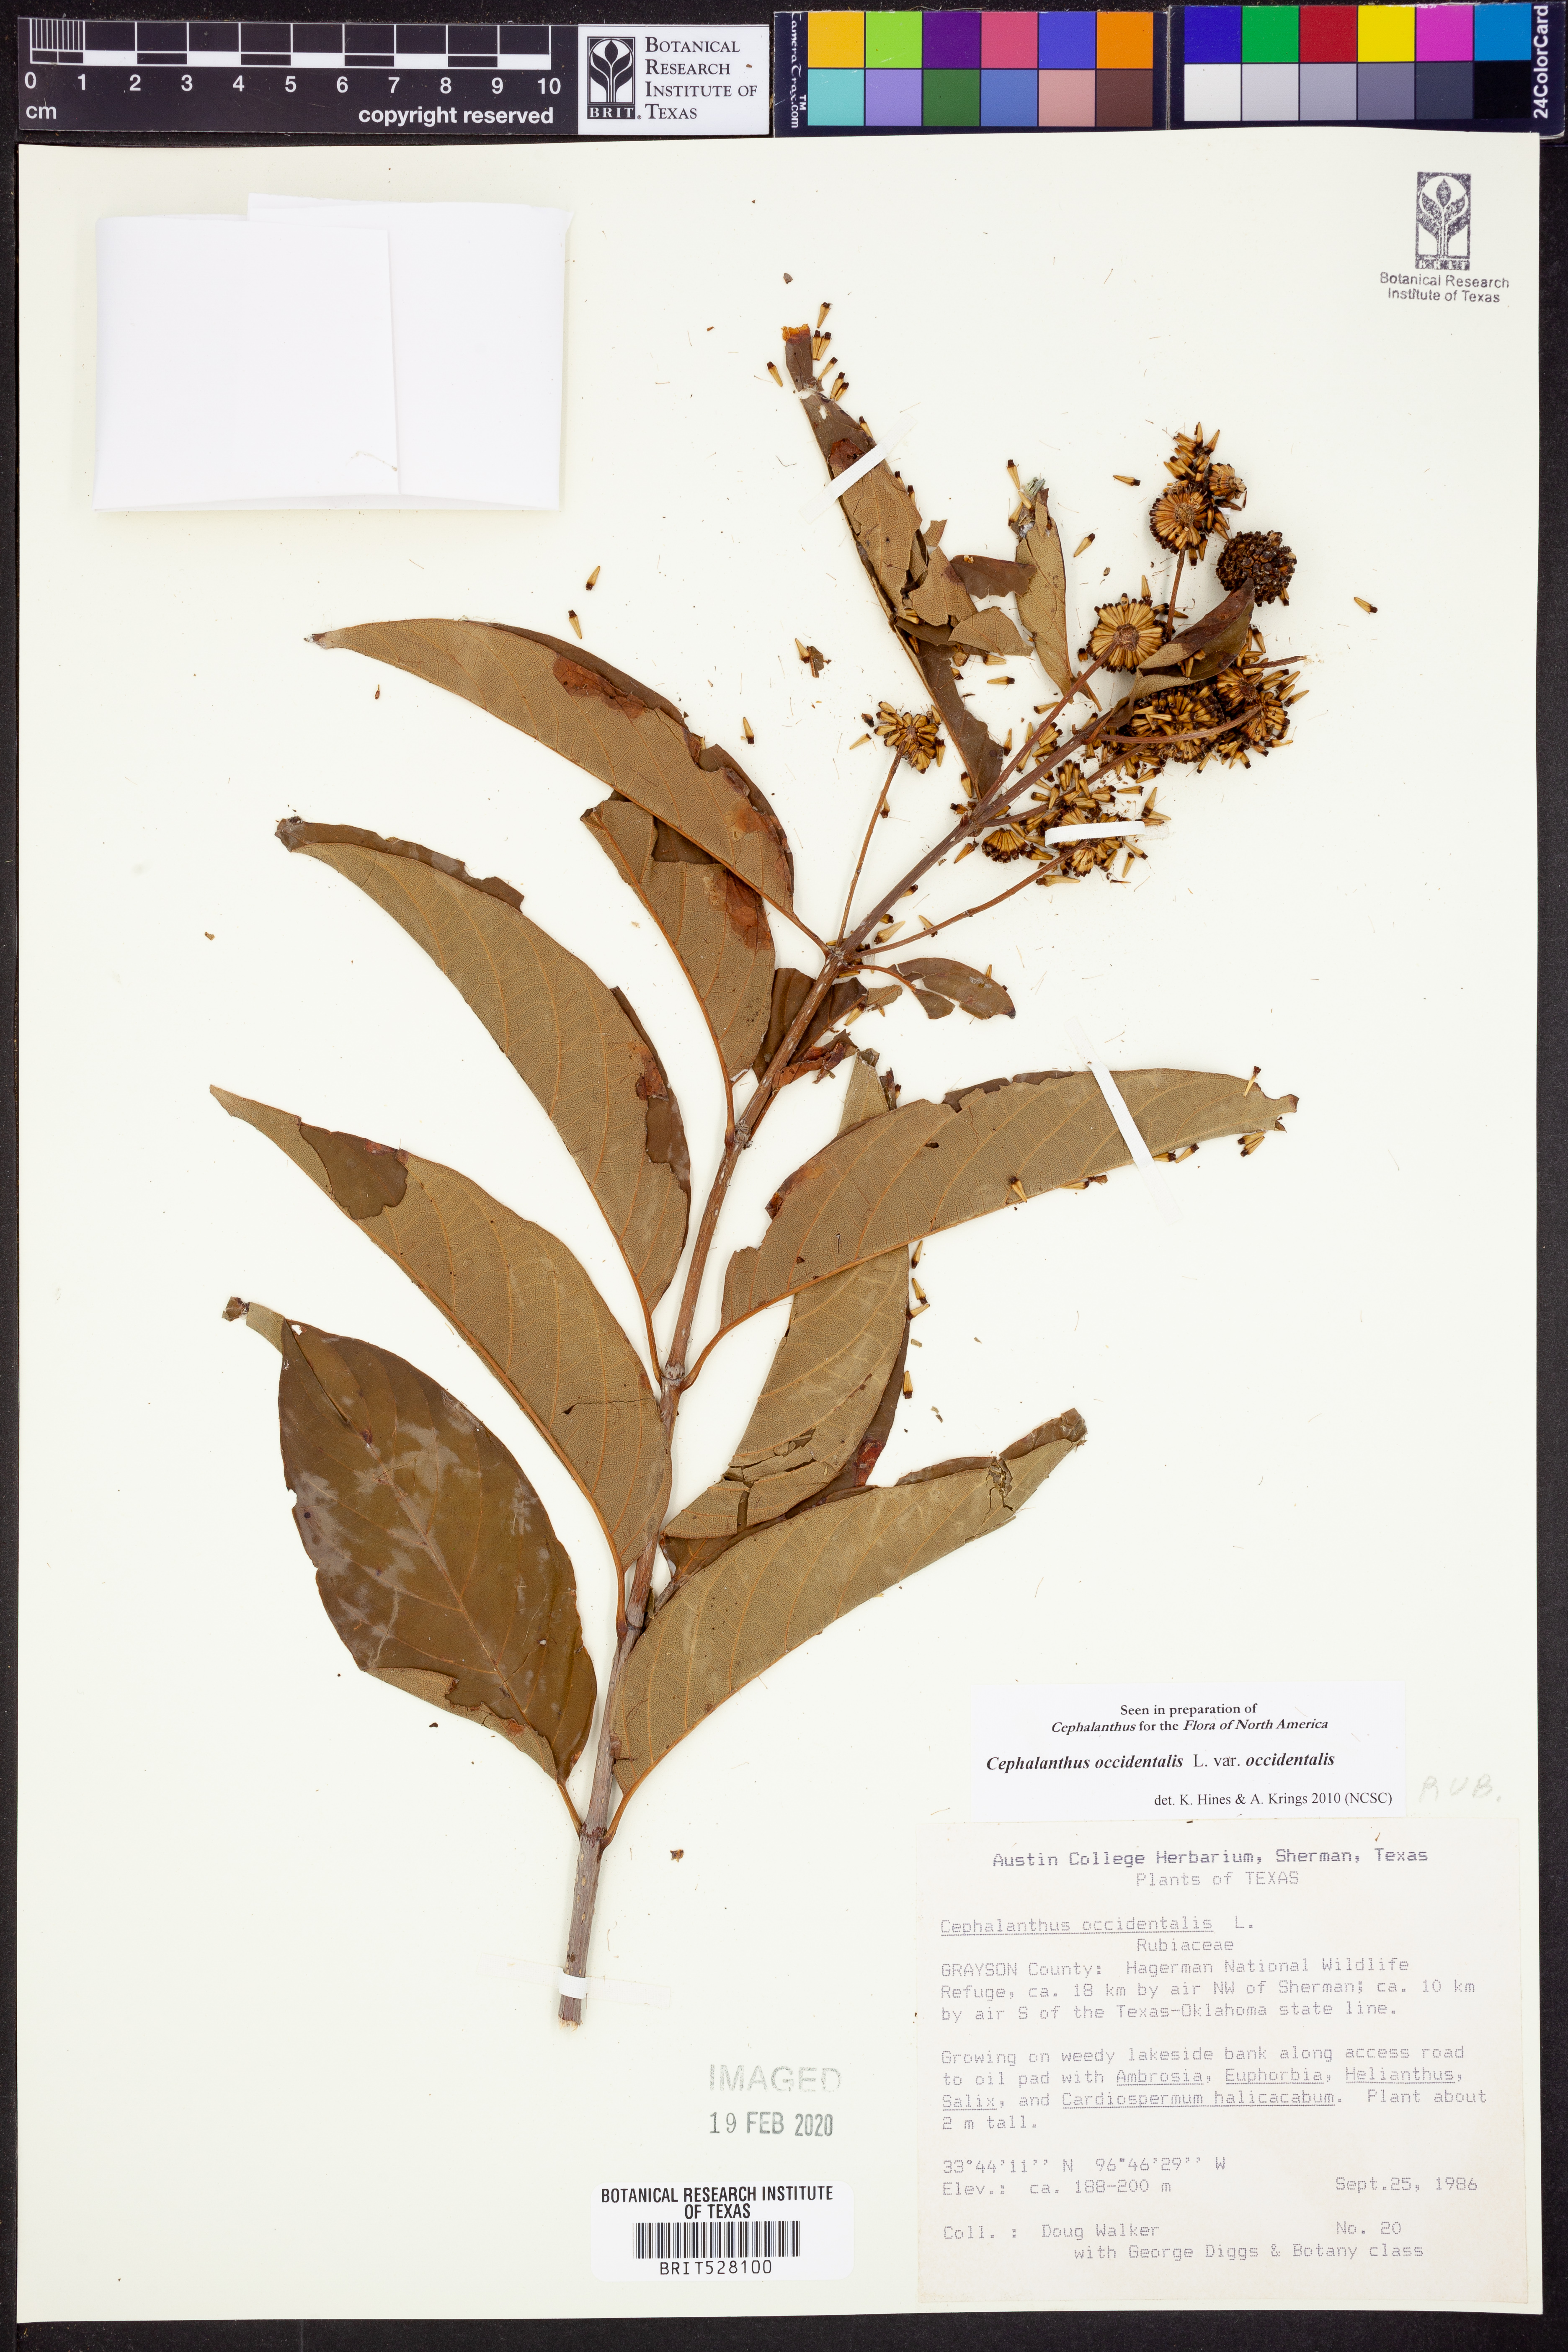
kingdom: Plantae
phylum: Tracheophyta
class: Magnoliopsida
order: Gentianales
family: Rubiaceae
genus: Cephalanthus
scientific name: Cephalanthus occidentalis
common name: Button-willow
